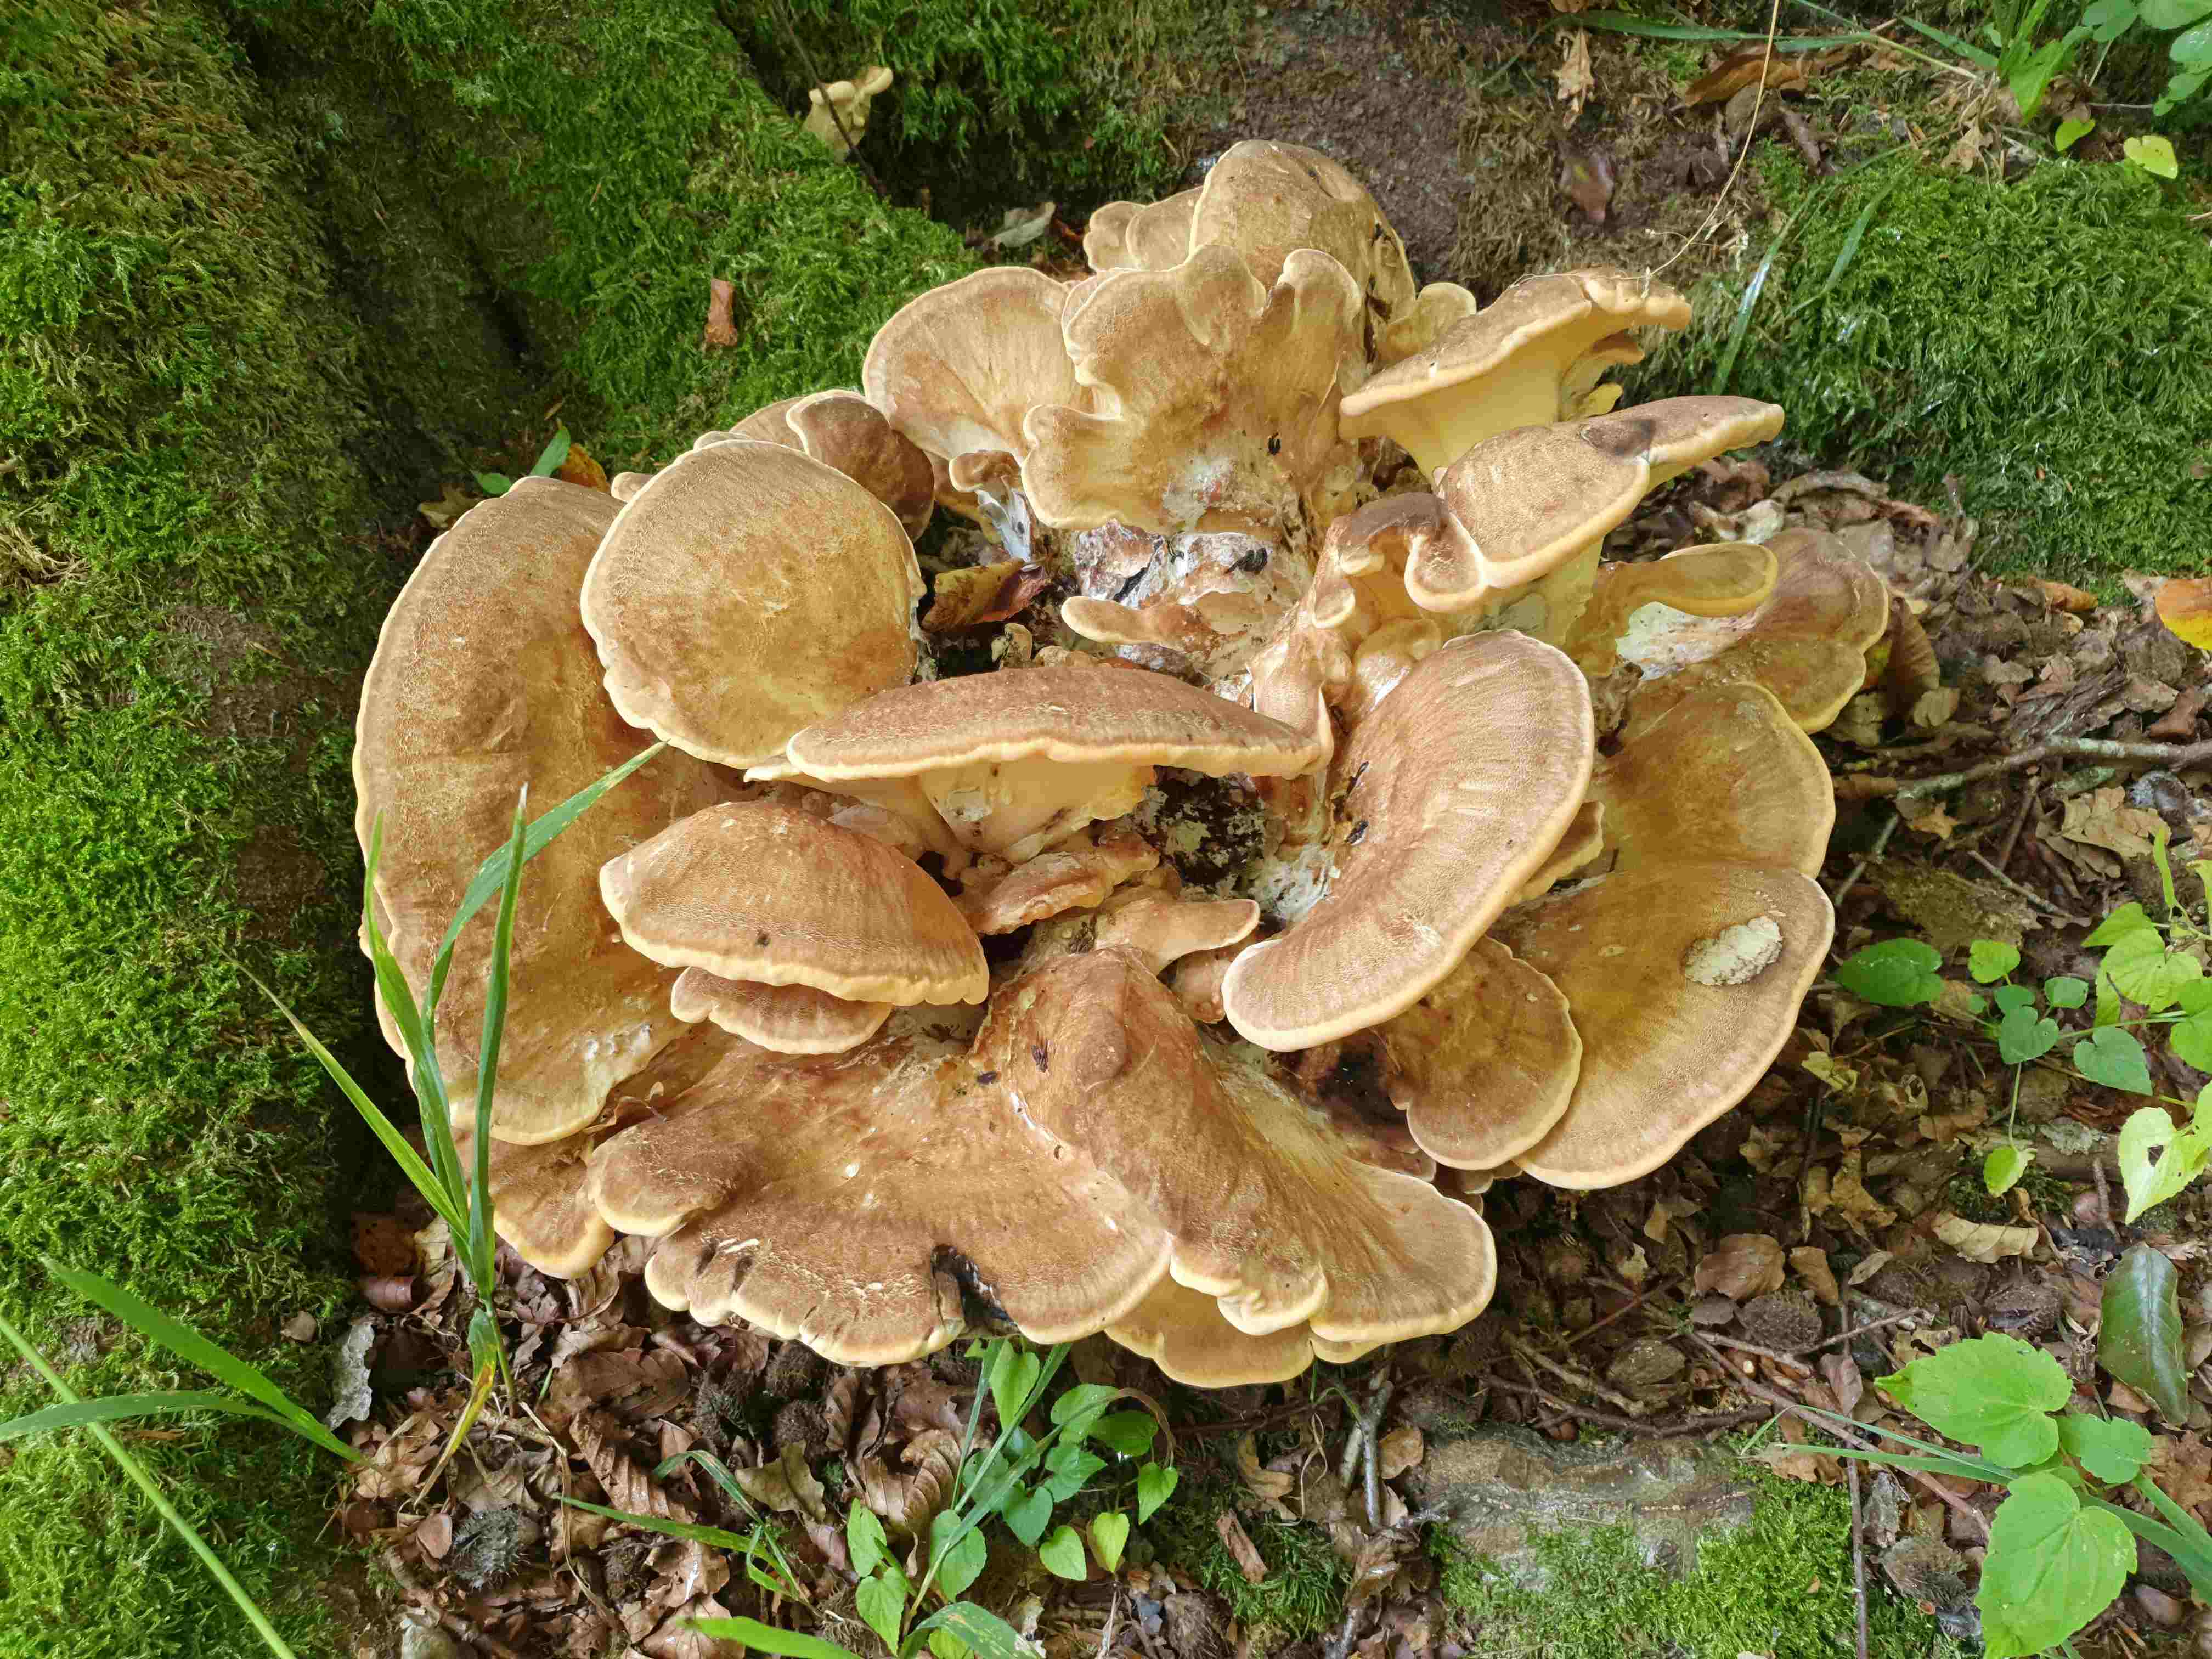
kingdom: Fungi
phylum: Basidiomycota
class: Agaricomycetes
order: Polyporales
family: Meripilaceae
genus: Meripilus
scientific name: Meripilus giganteus
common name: kæmpeporesvamp
